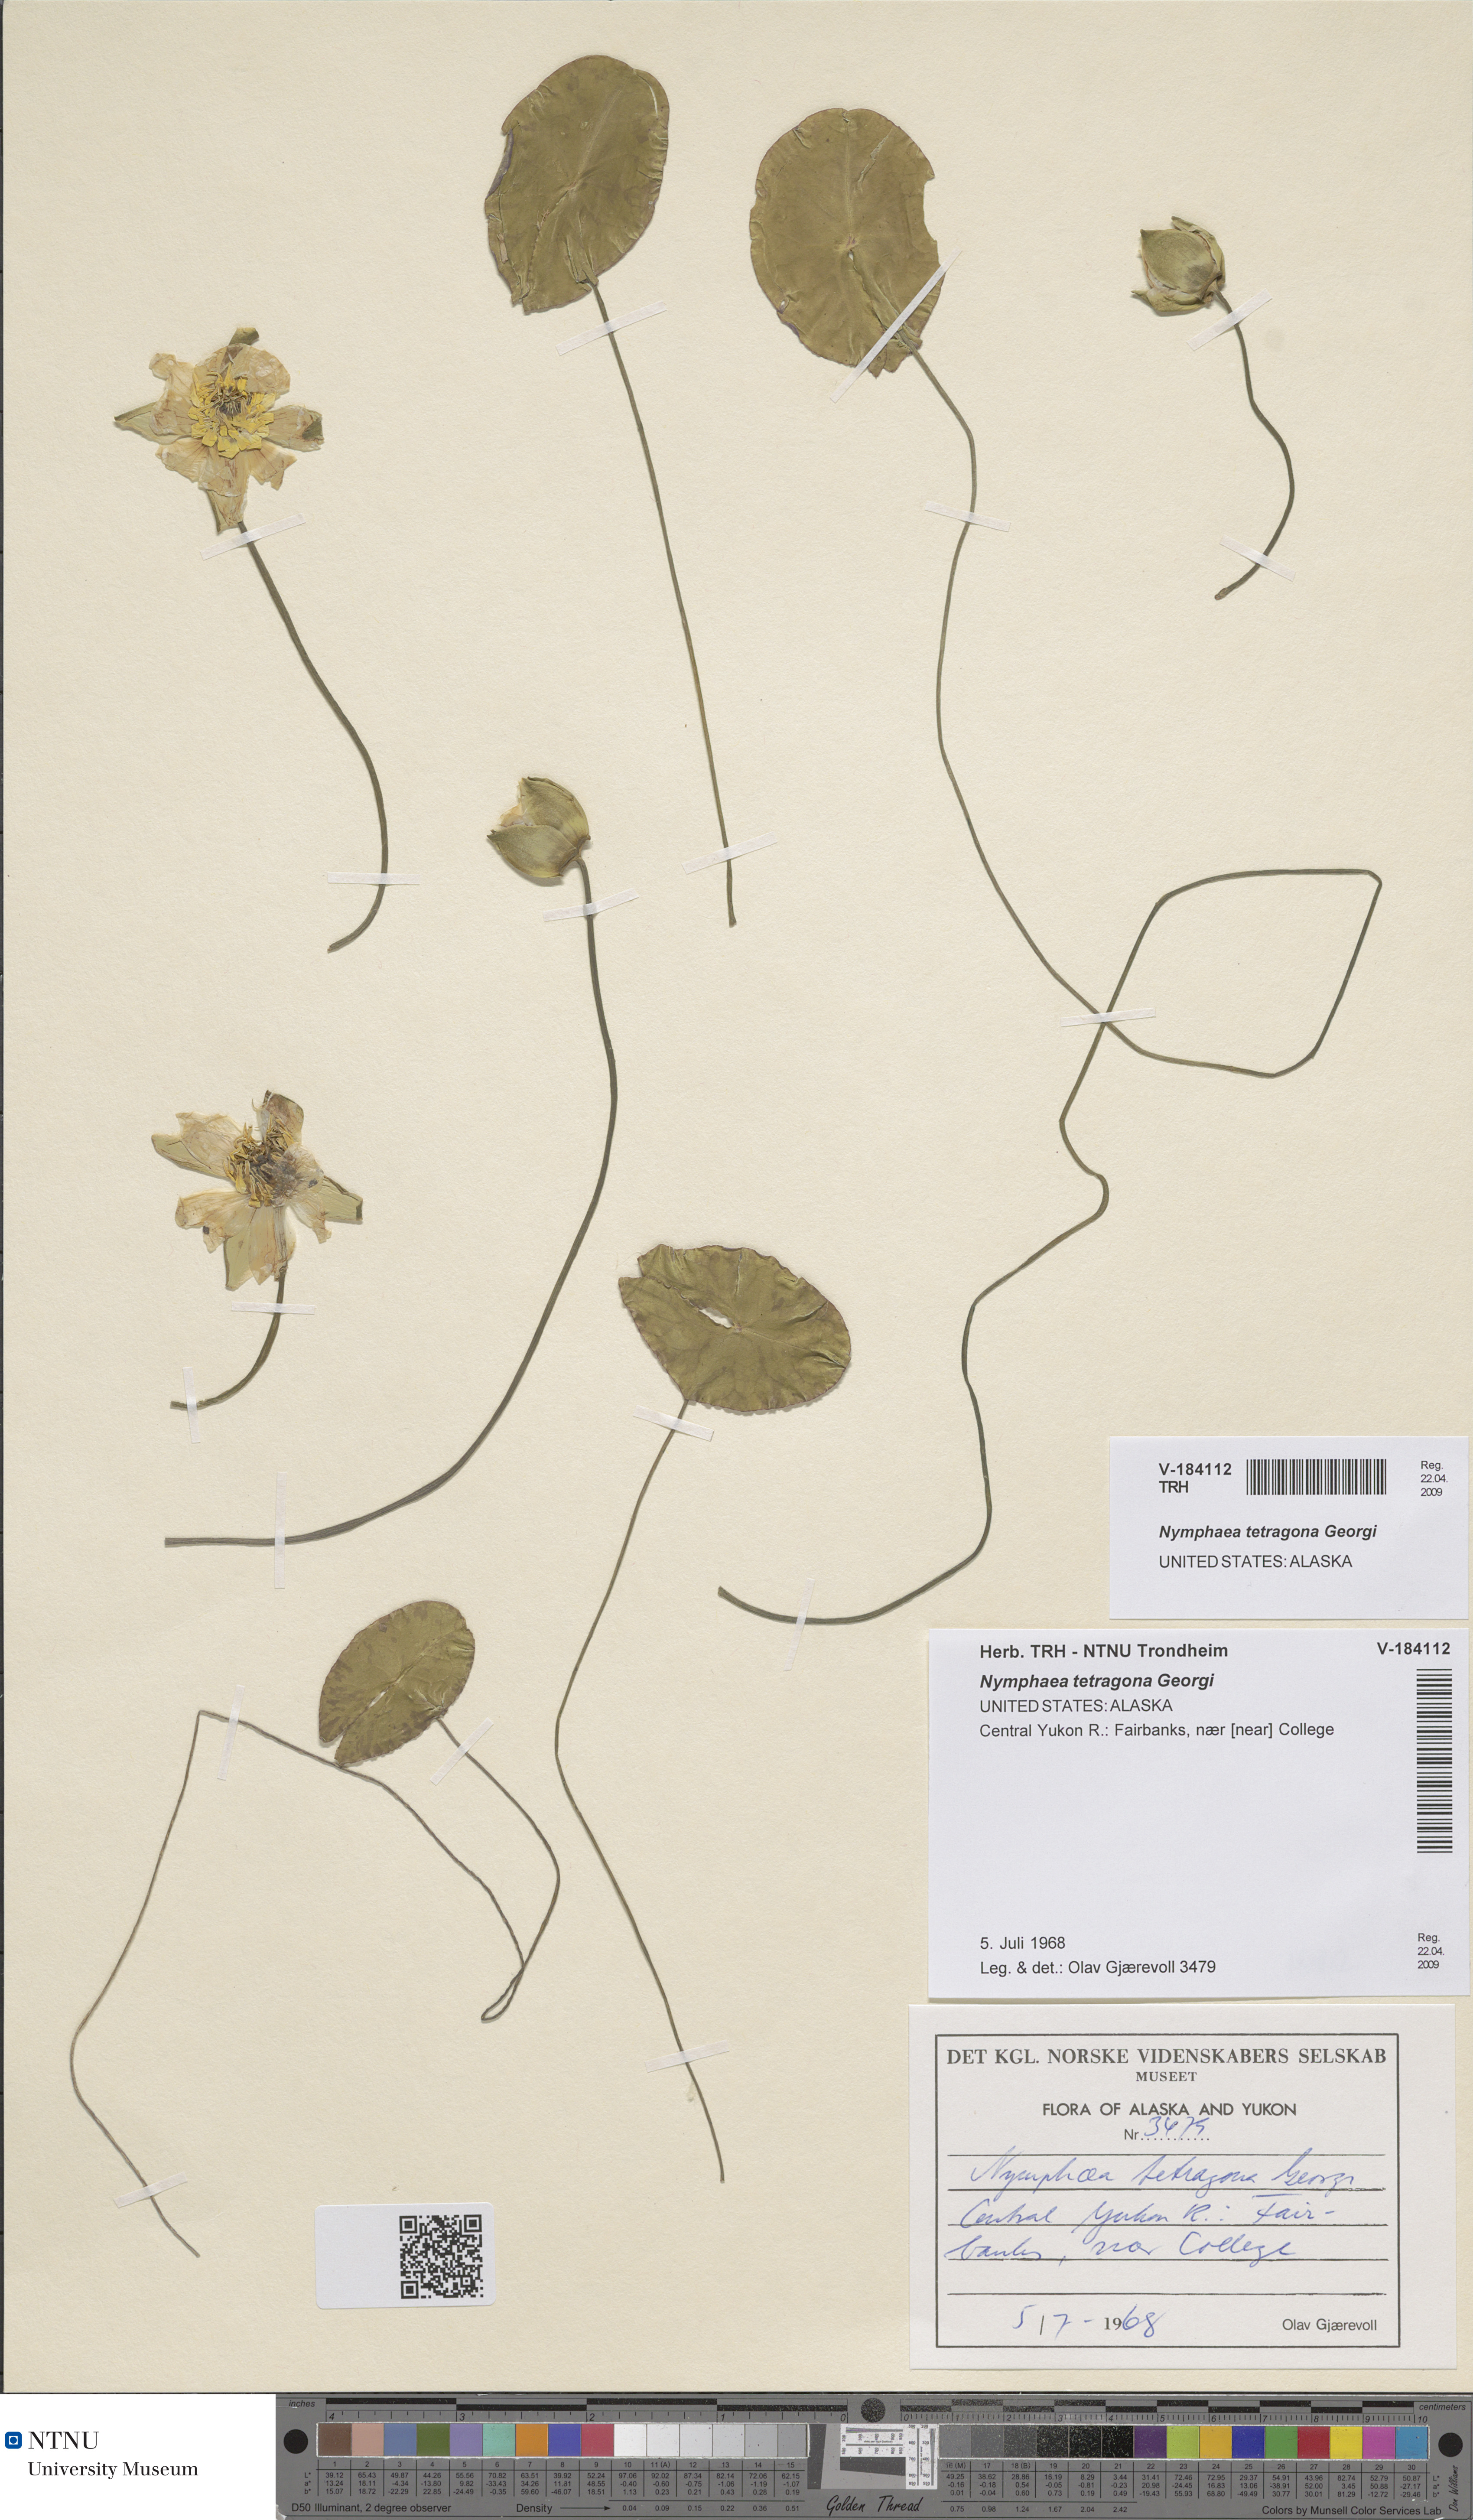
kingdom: Plantae
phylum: Tracheophyta
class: Magnoliopsida
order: Nymphaeales
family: Nymphaeaceae
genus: Nymphaea
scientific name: Nymphaea tetragona
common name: Pygmy water-lily
